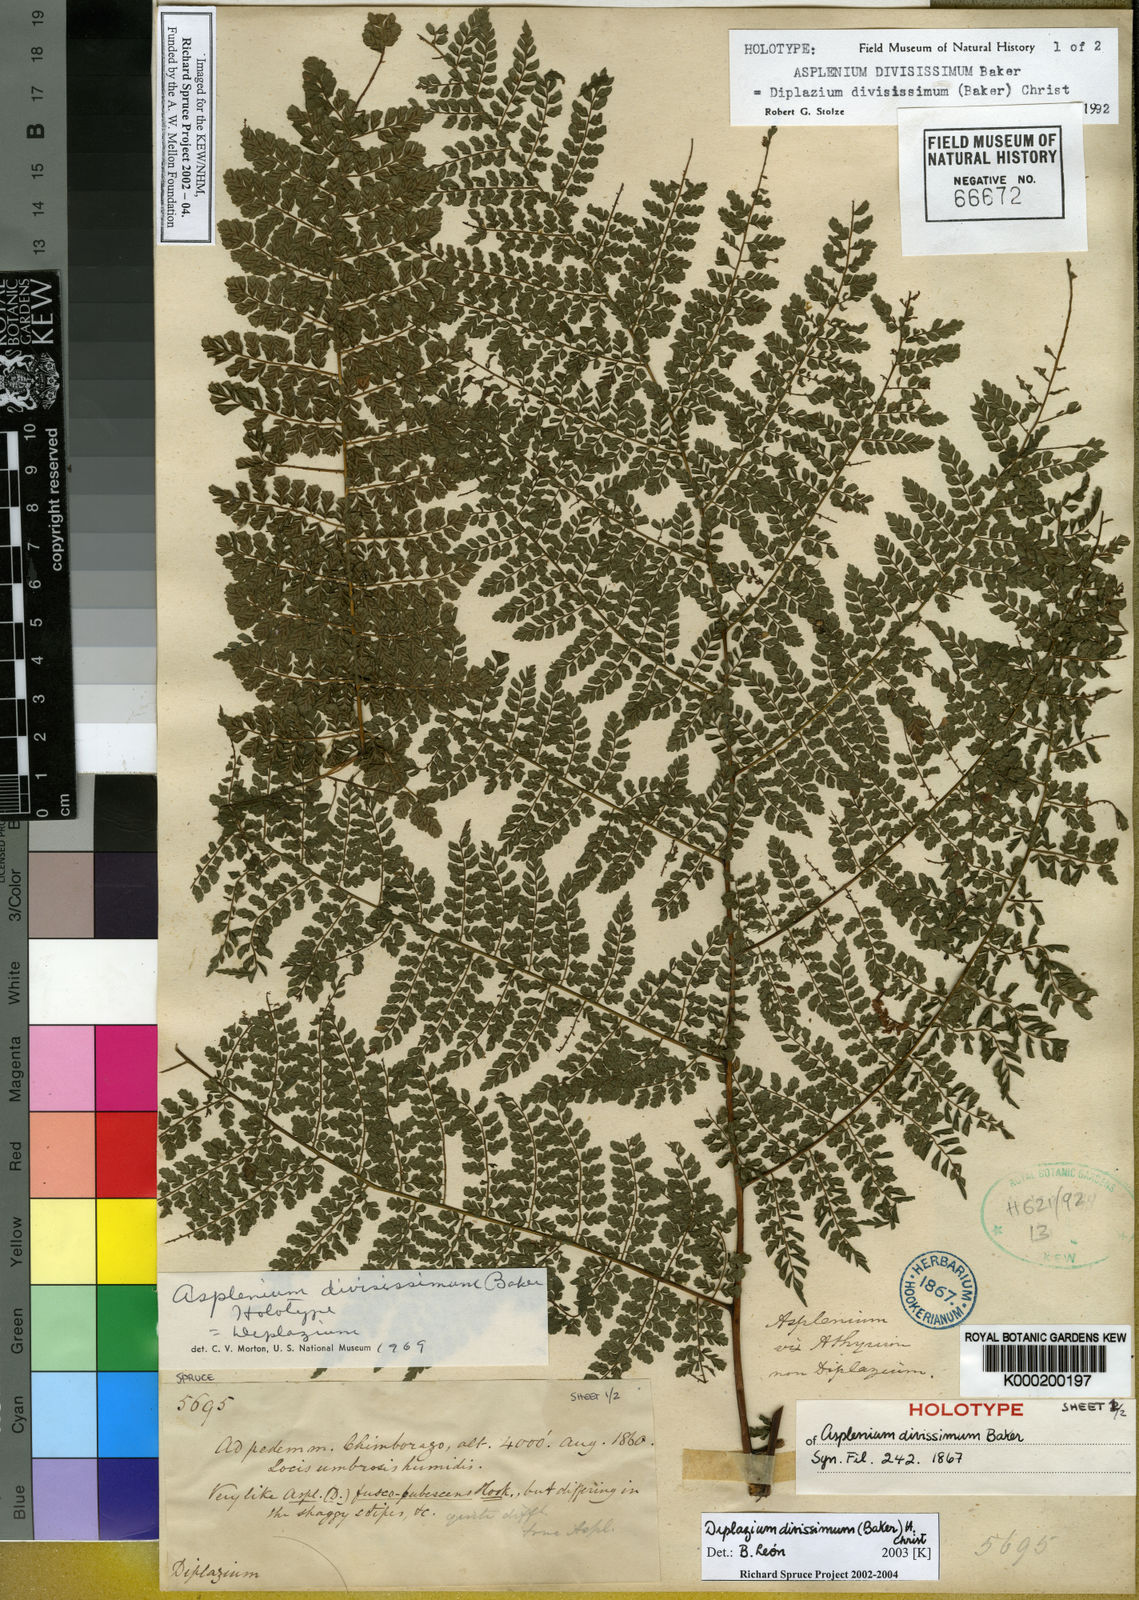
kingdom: Plantae
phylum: Tracheophyta
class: Polypodiopsida
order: Polypodiales
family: Athyriaceae
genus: Diplazium
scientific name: Diplazium divisissimum
